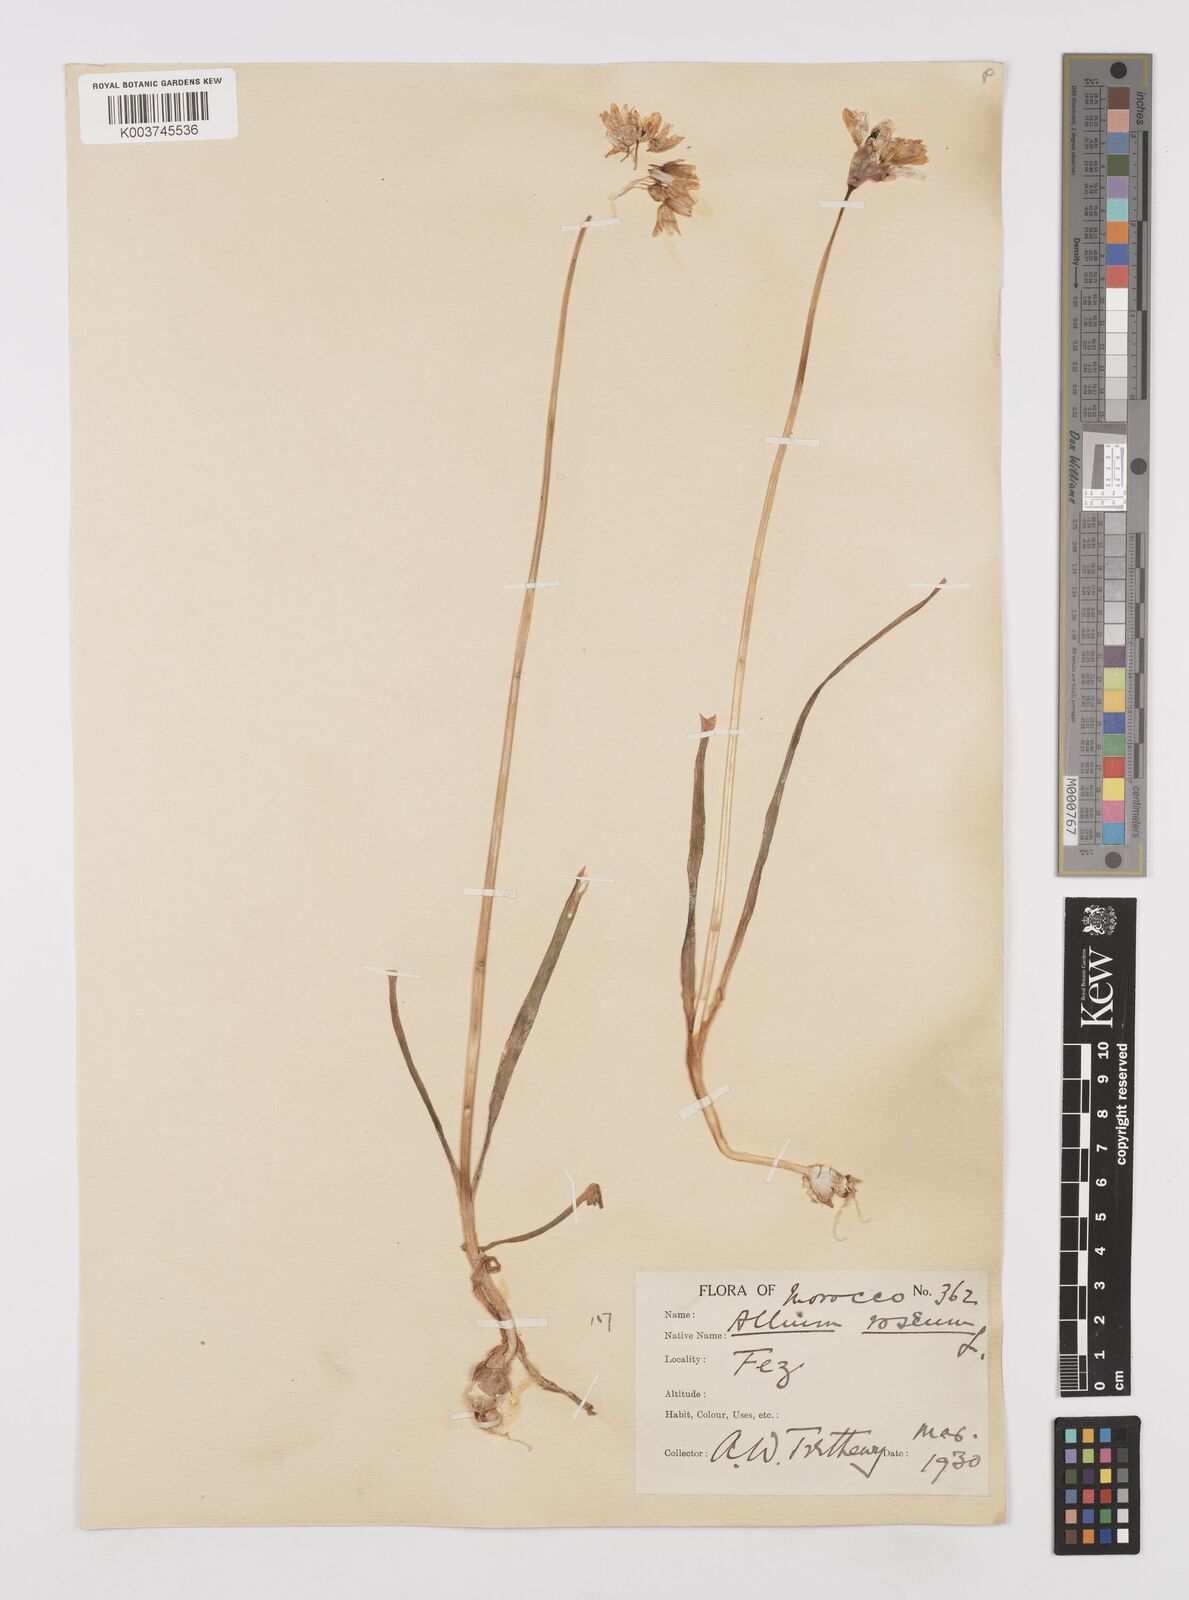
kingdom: Plantae
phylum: Tracheophyta
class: Liliopsida
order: Asparagales
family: Amaryllidaceae
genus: Allium
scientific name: Allium roseum
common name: Rosy garlic
